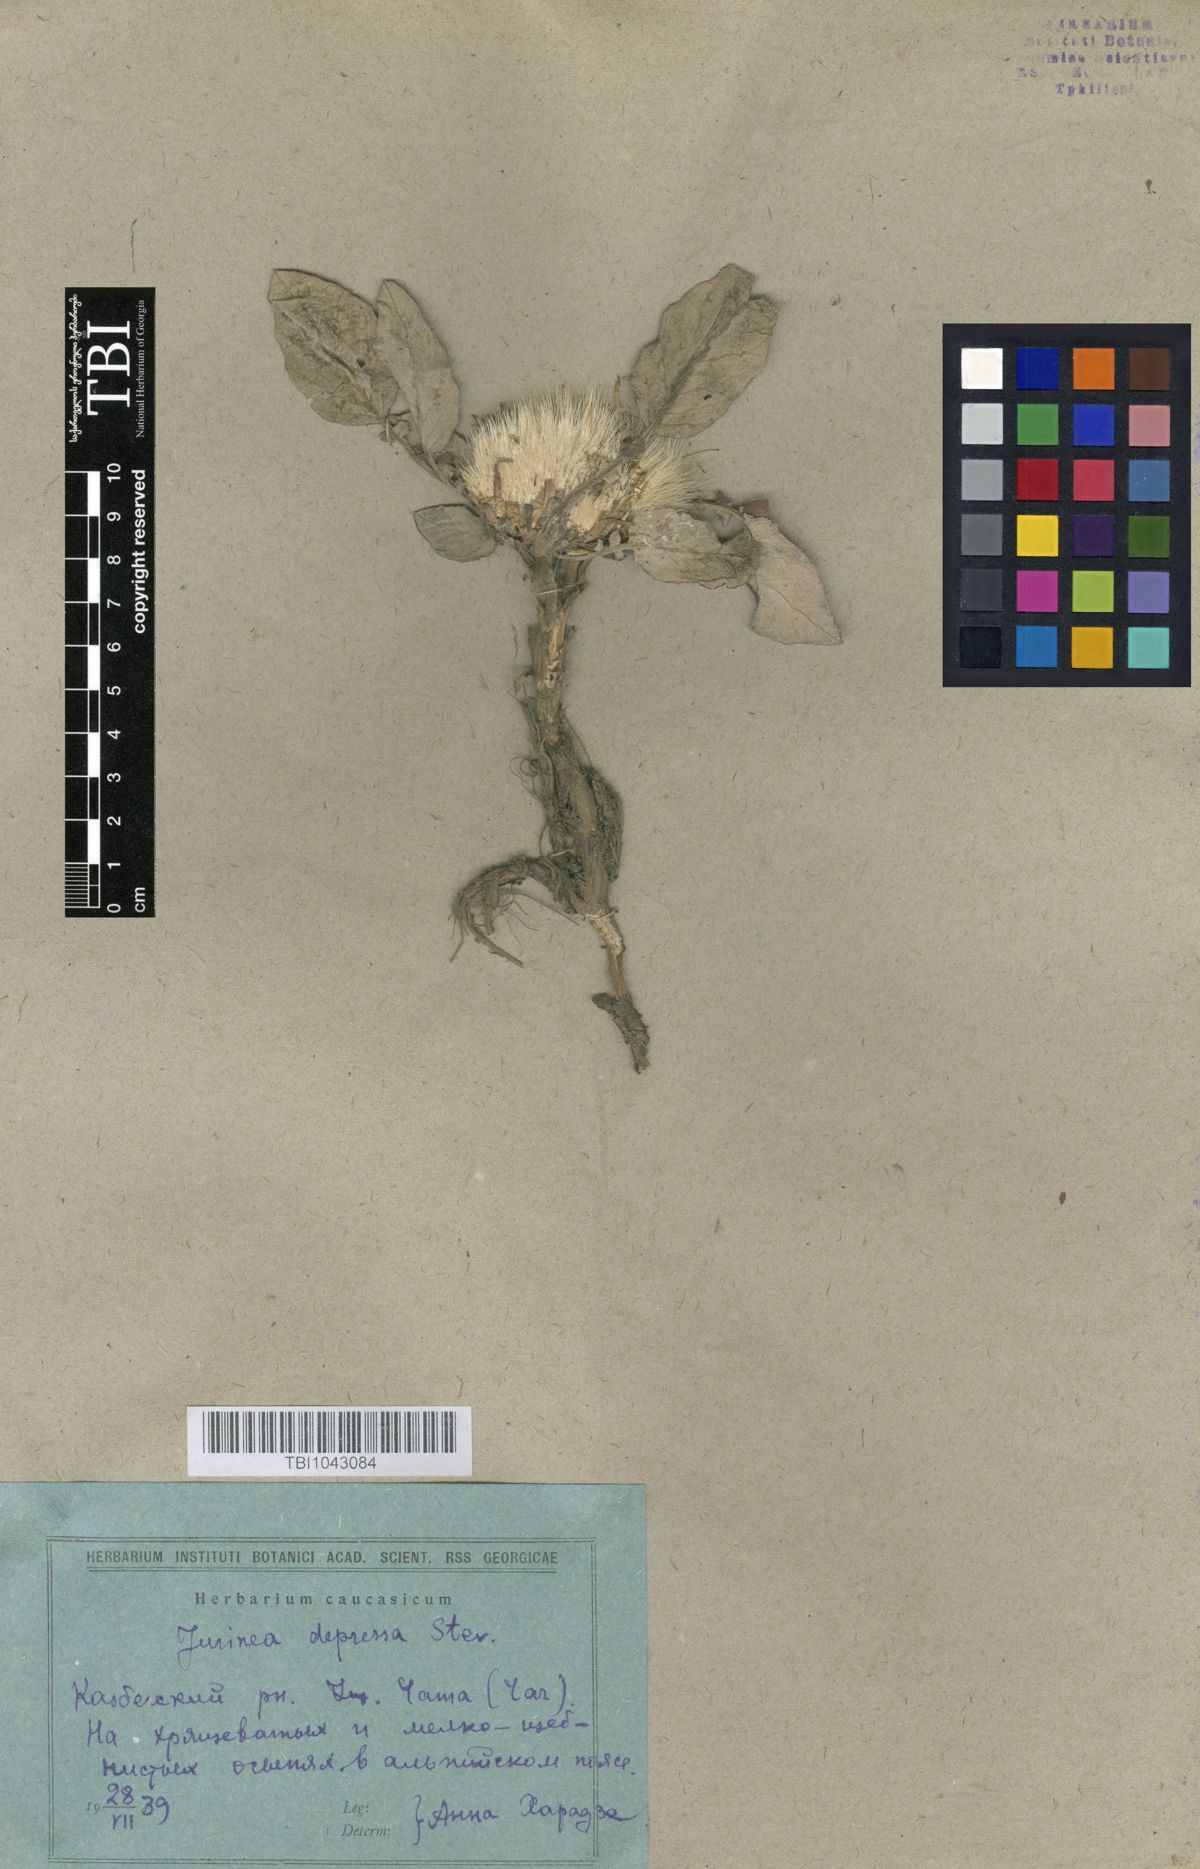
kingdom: Plantae
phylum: Tracheophyta
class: Magnoliopsida
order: Asterales
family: Asteraceae
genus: Jurinea
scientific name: Jurinea moschus
